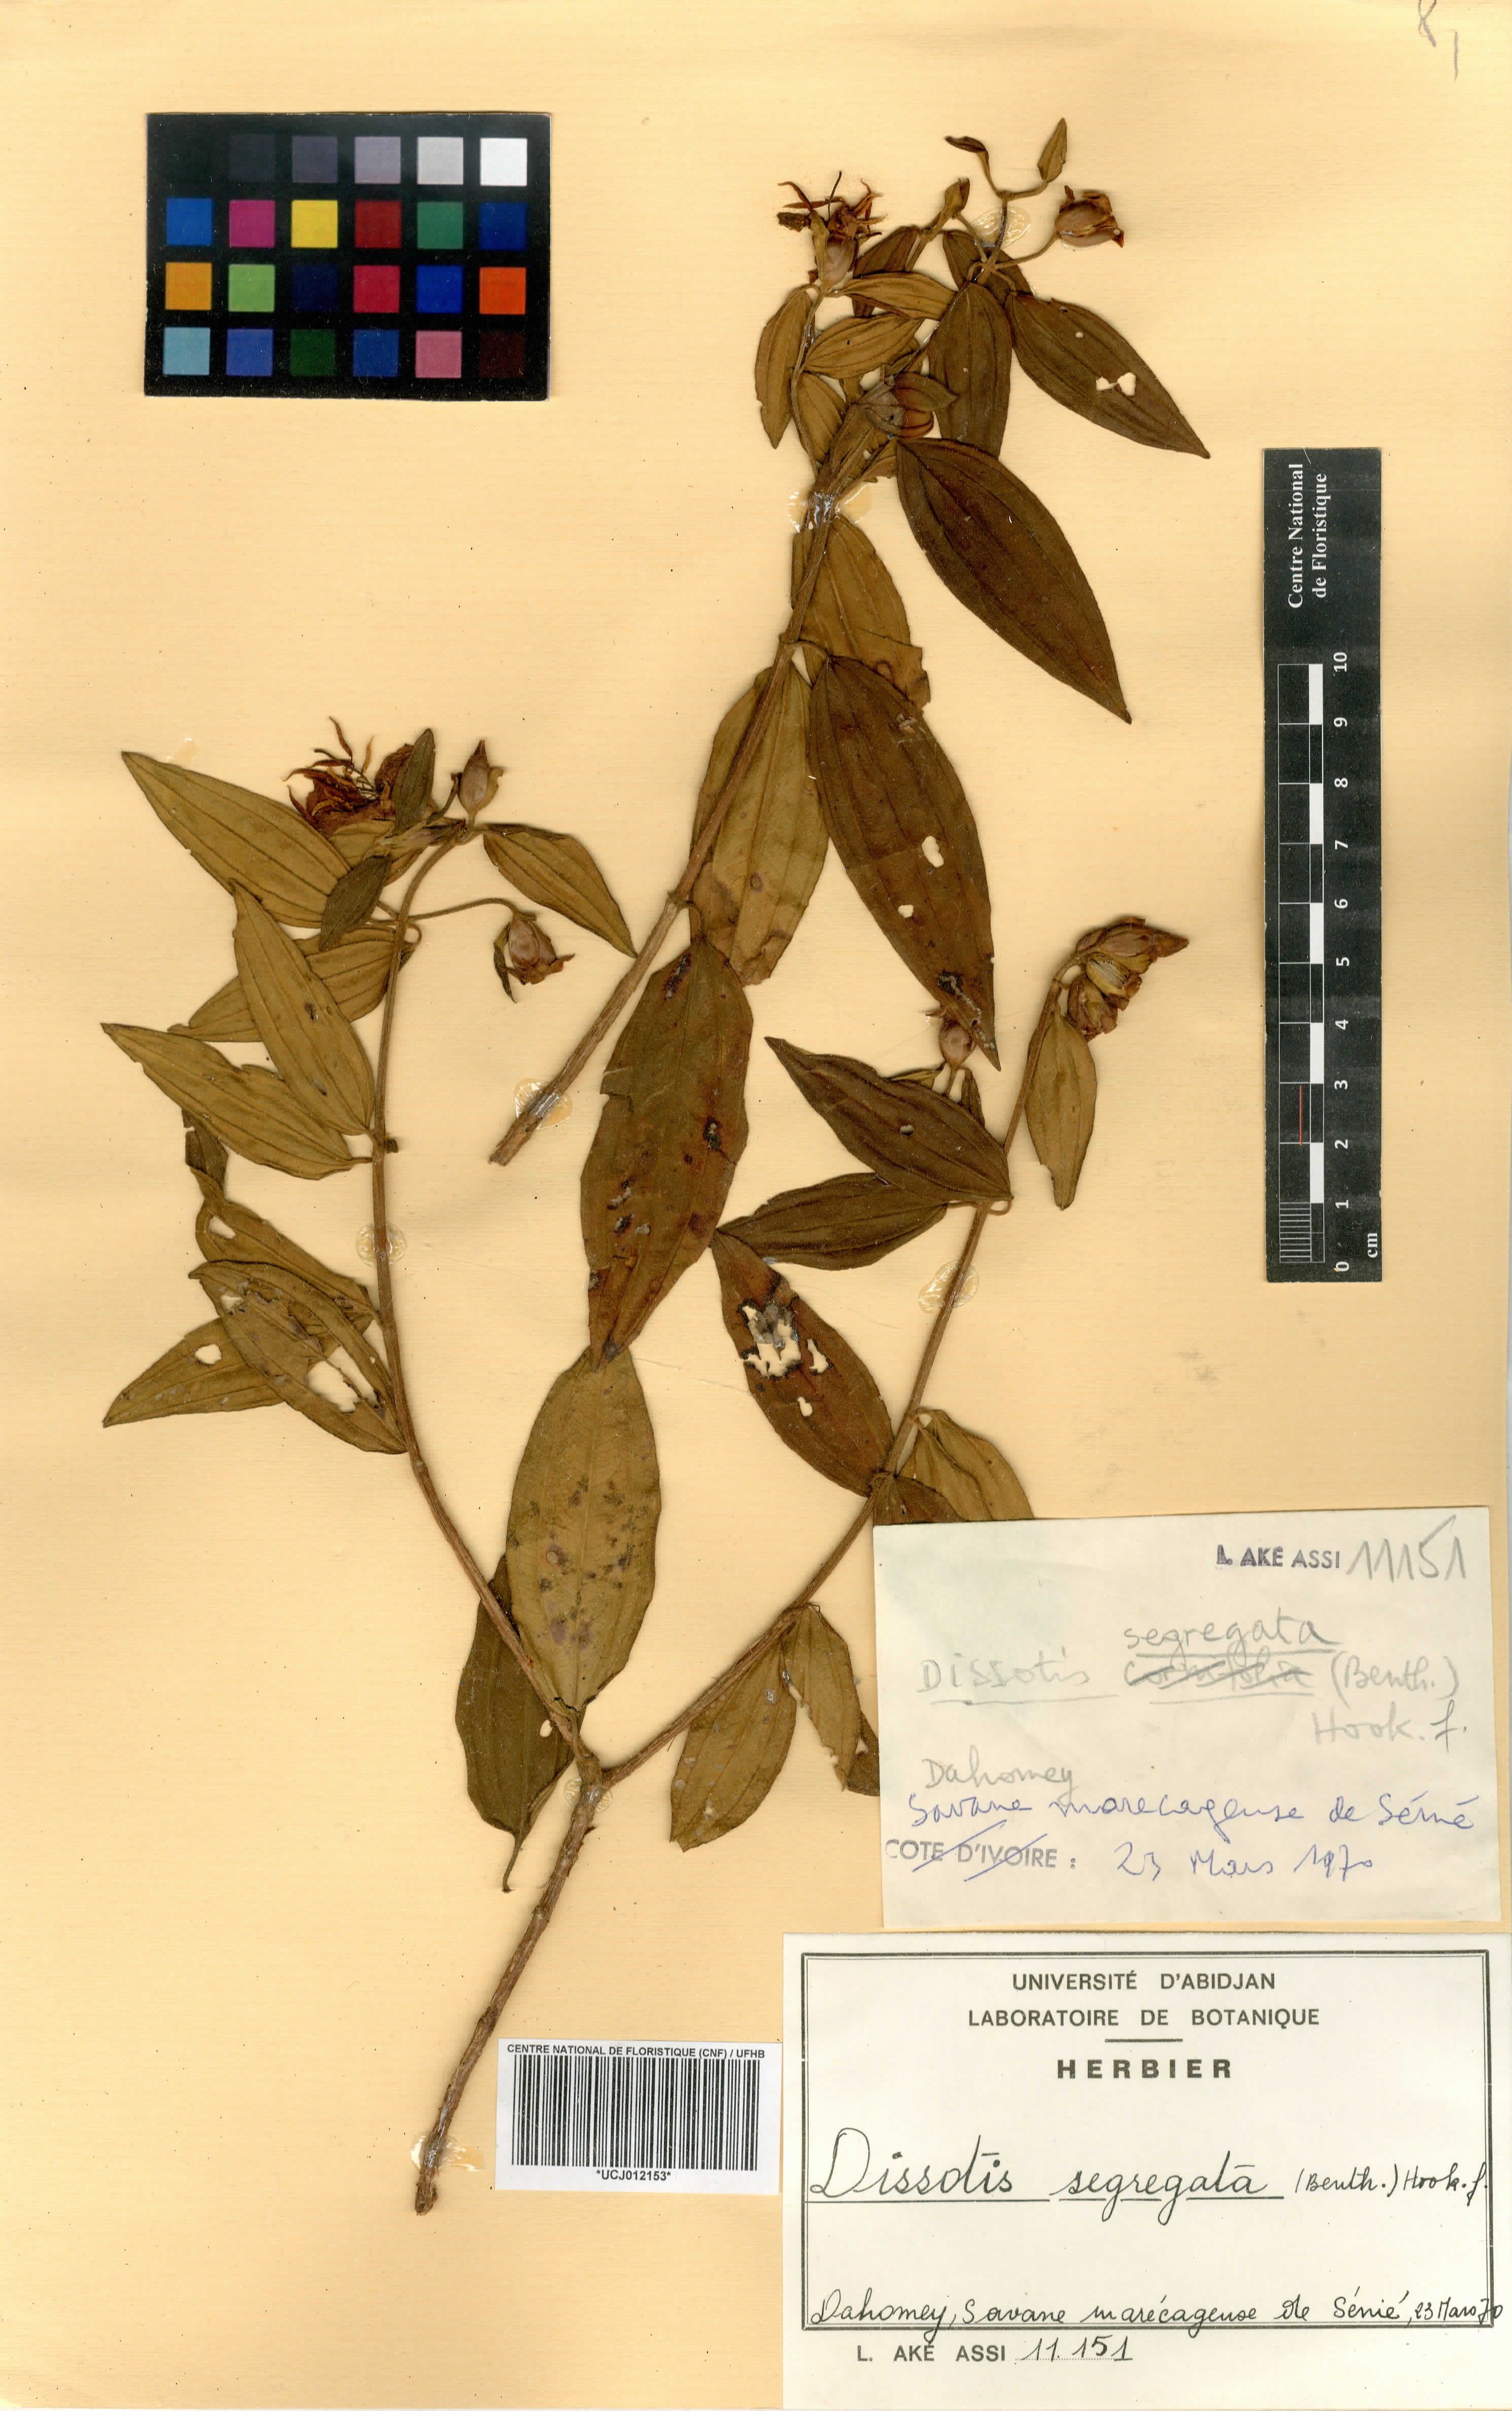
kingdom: Plantae
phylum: Tracheophyta
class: Magnoliopsida
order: Myrtales
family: Melastomataceae
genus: Melastomastrum
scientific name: Melastomastrum segregatum
